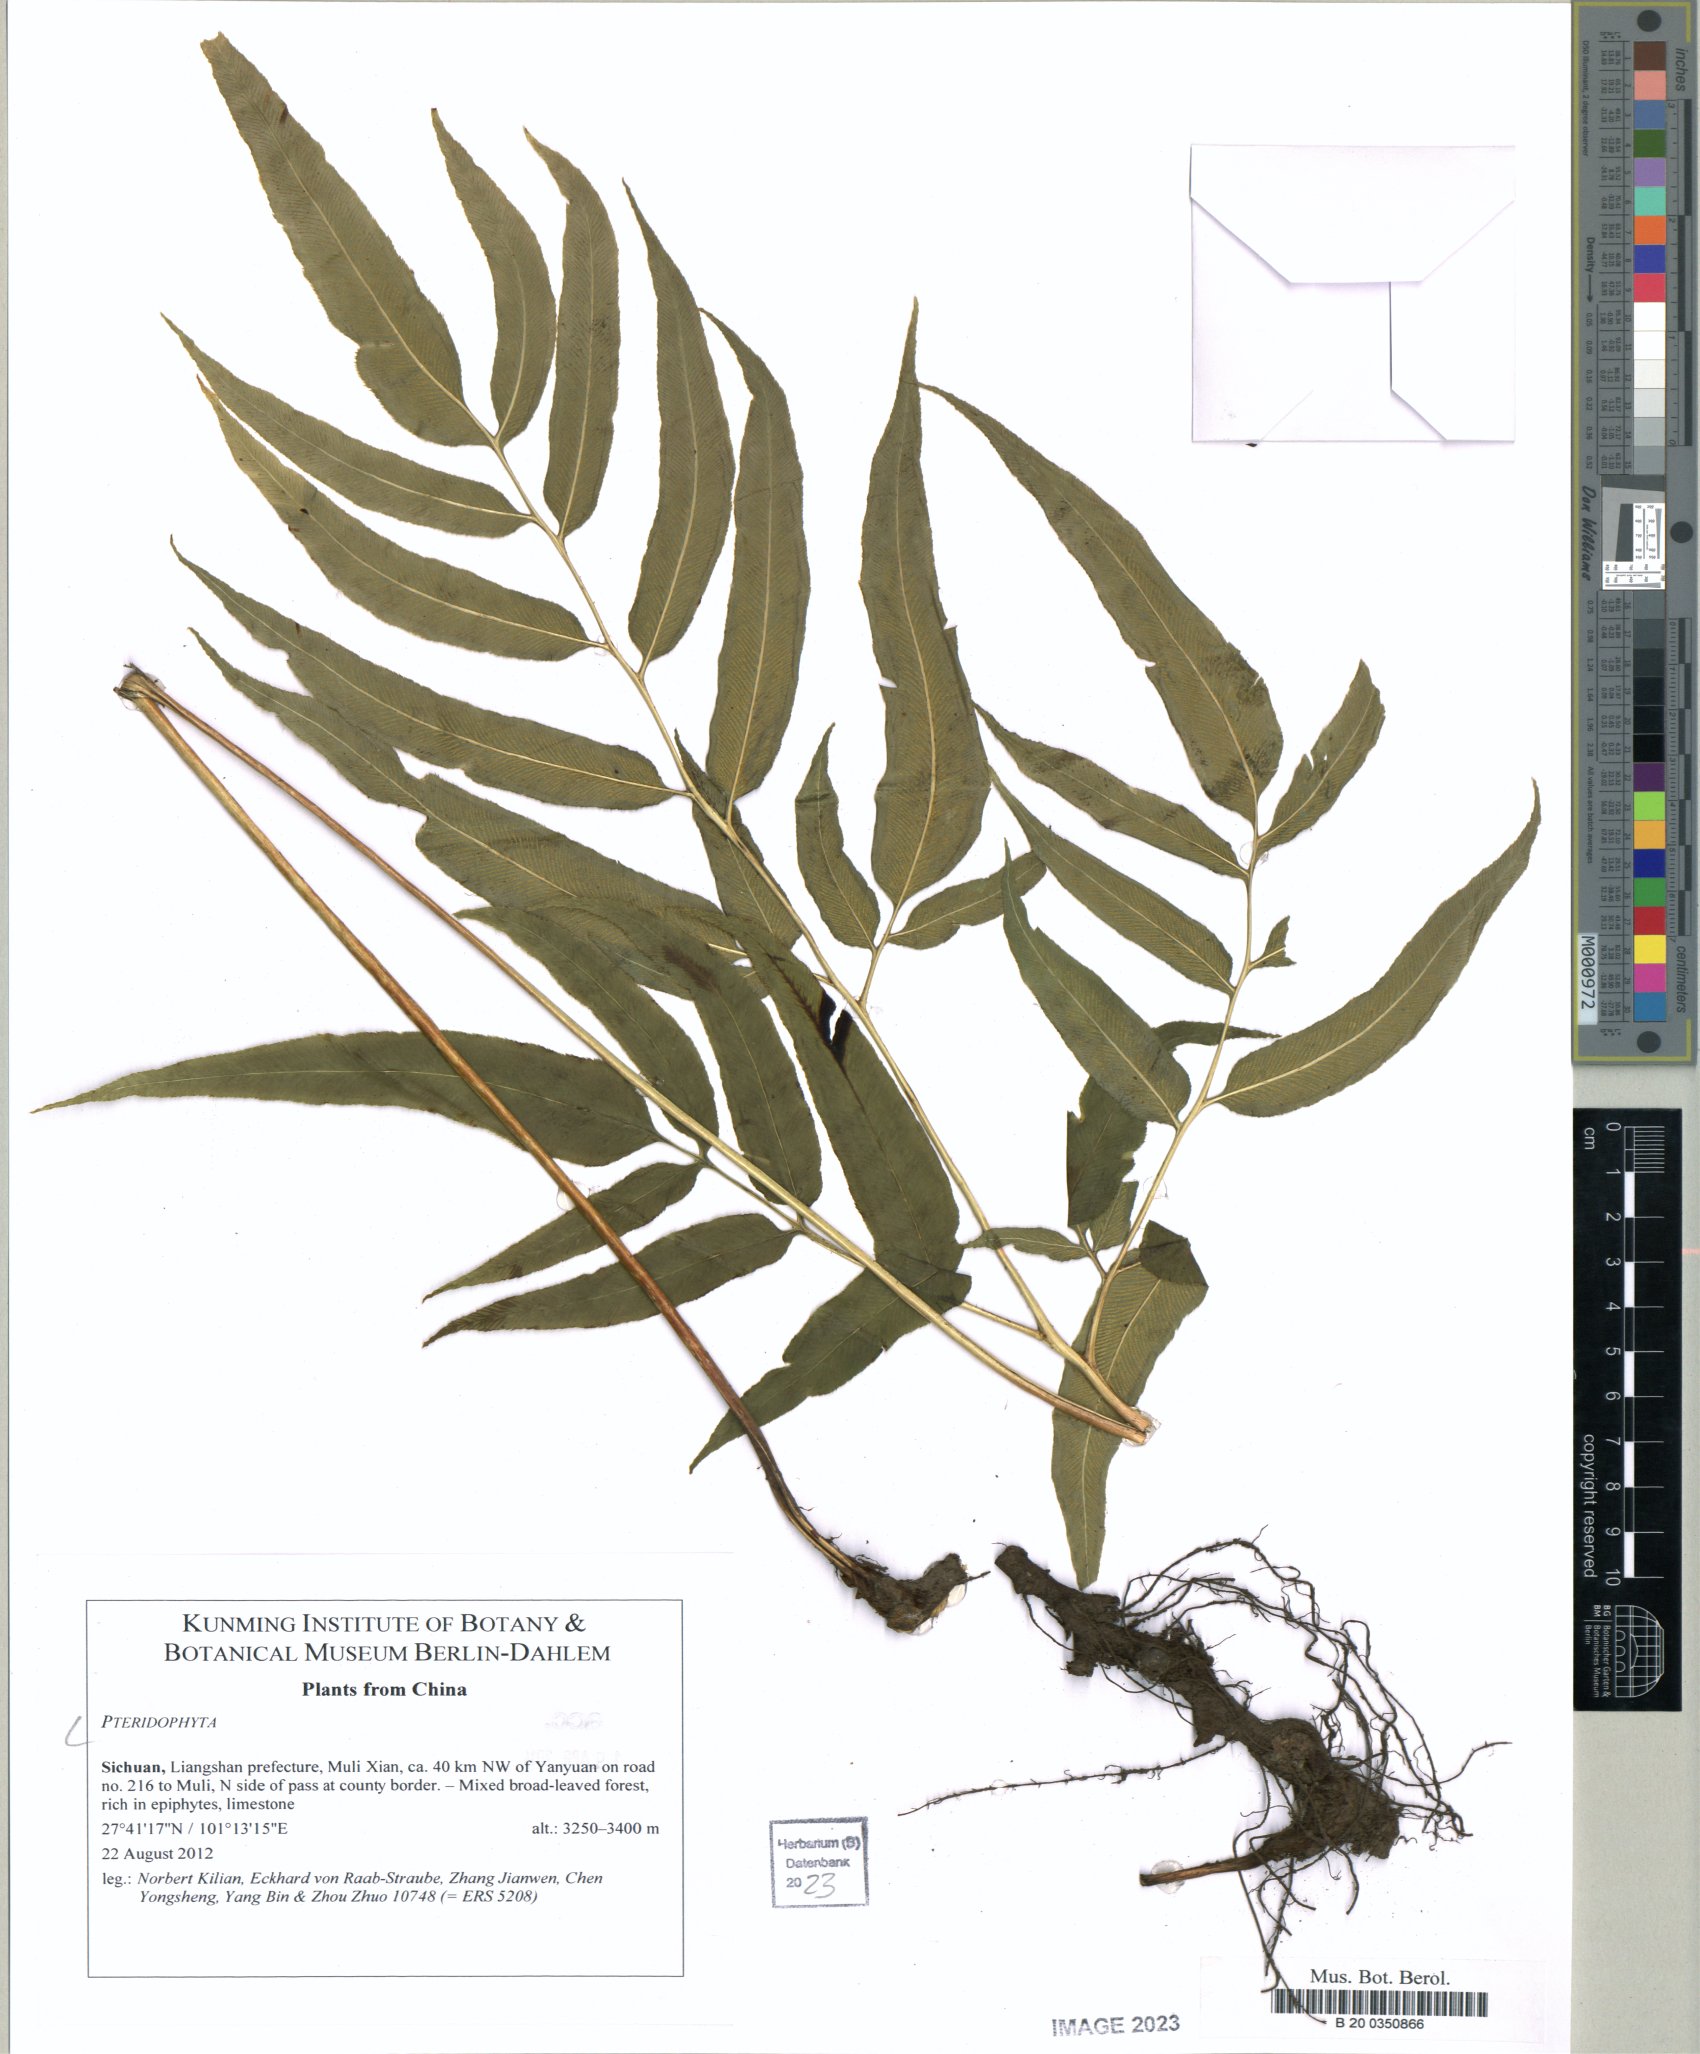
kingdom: Plantae
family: Pteridophyta
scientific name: Pteridophyta
